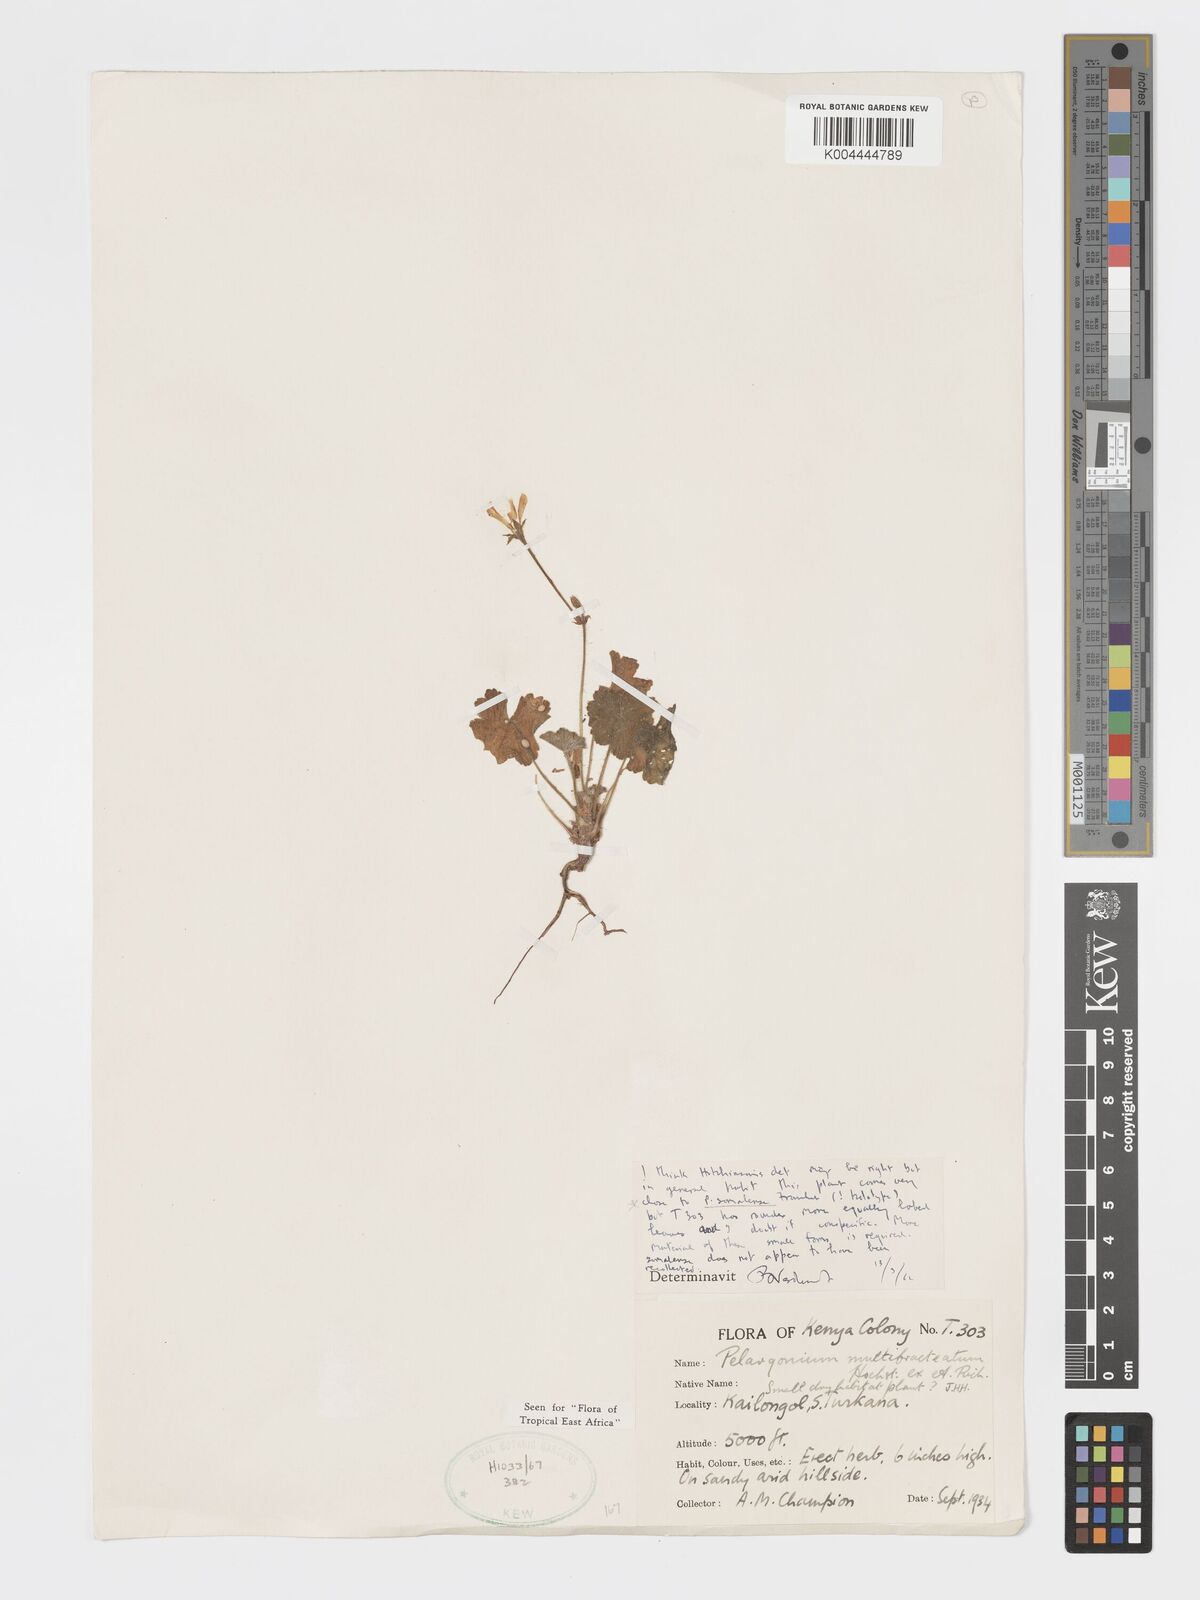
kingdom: Plantae
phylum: Tracheophyta
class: Magnoliopsida
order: Geraniales
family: Geraniaceae
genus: Pelargonium
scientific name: Pelargonium alchemilloides
